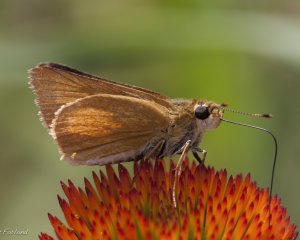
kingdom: Animalia
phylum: Arthropoda
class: Insecta
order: Lepidoptera
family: Hesperiidae
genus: Atrytone
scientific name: Atrytone delaware
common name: Delaware Skipper
